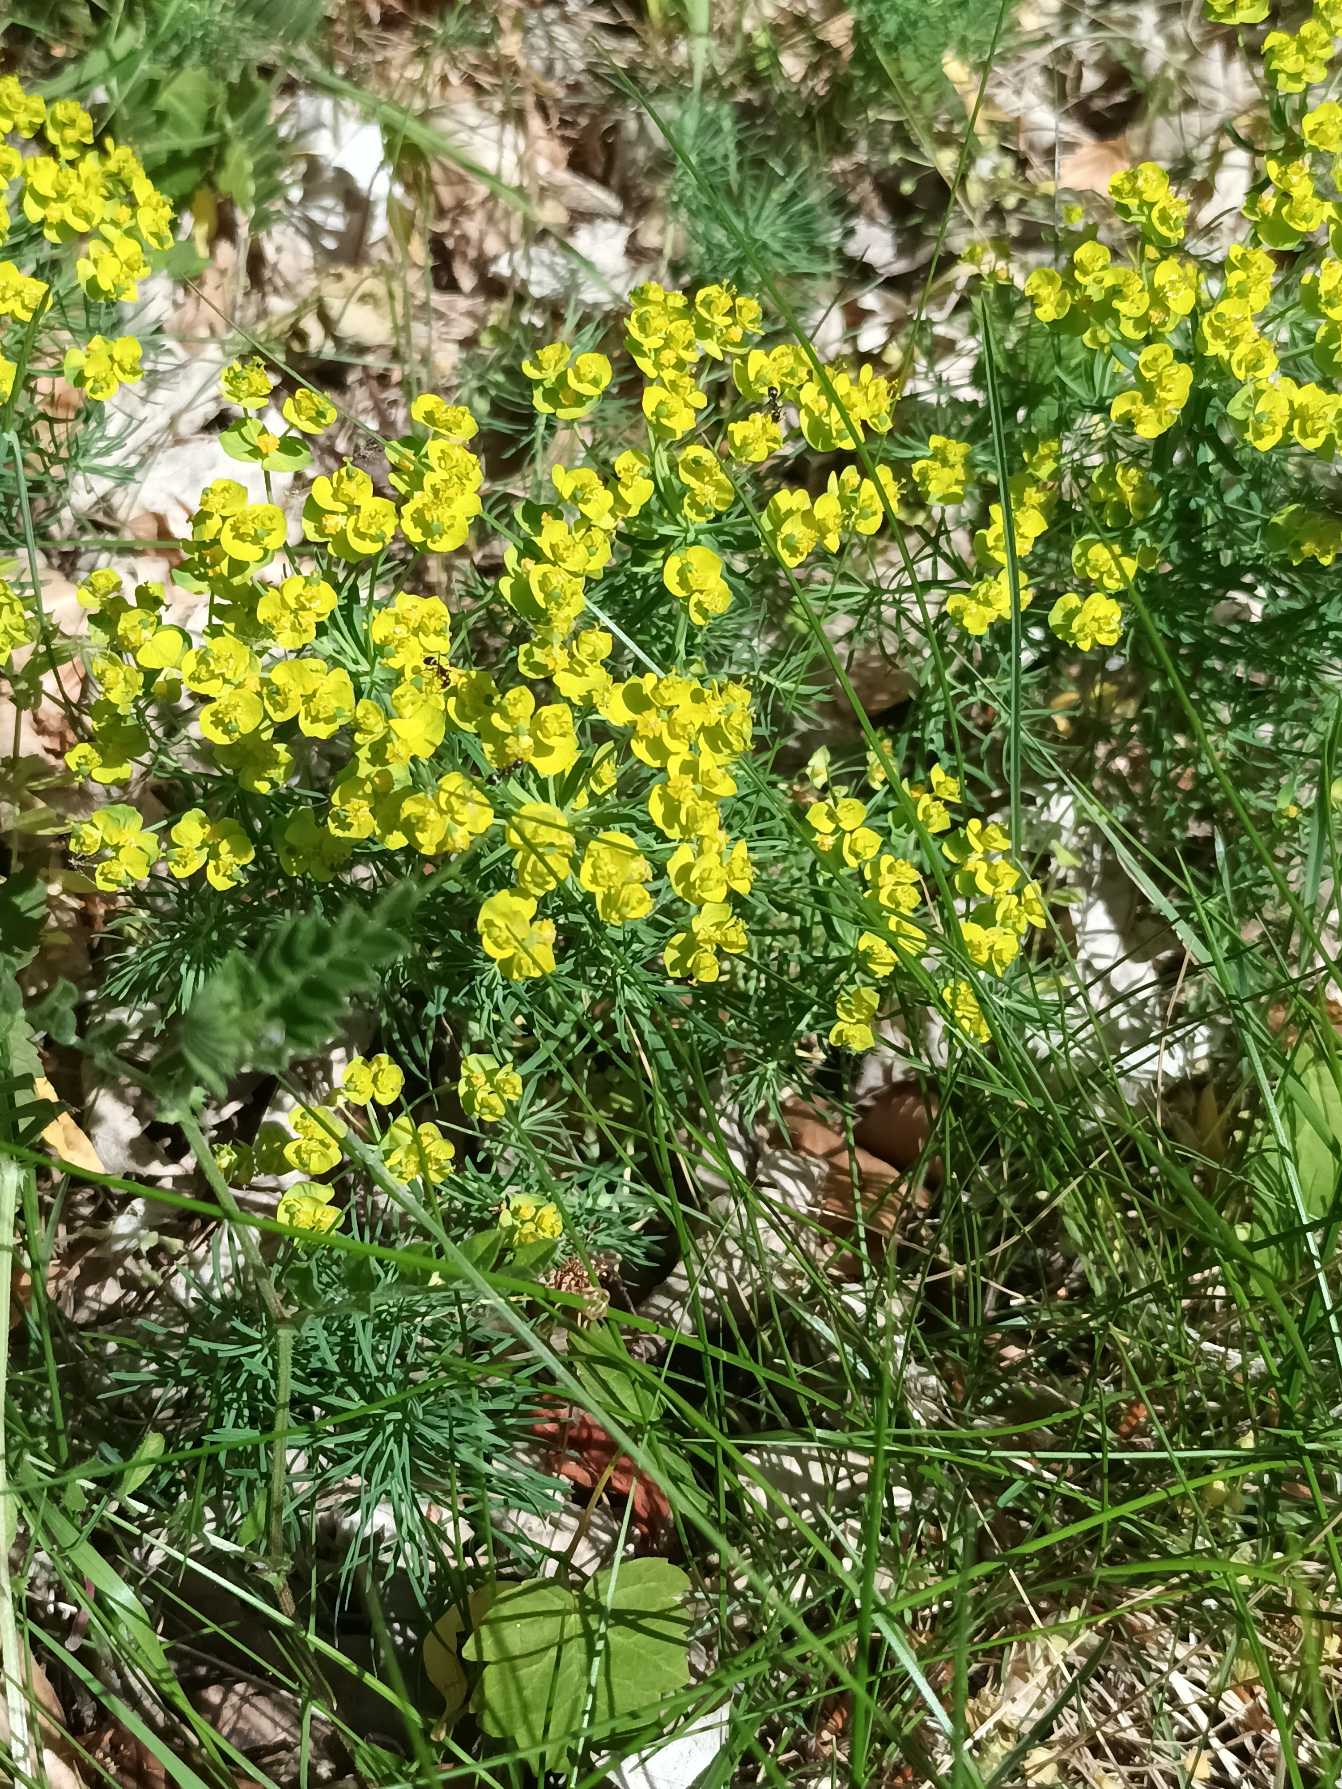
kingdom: Plantae
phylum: Tracheophyta
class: Magnoliopsida
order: Malpighiales
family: Euphorbiaceae
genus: Euphorbia
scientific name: Euphorbia cyparissias
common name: Cypres-vortemælk
